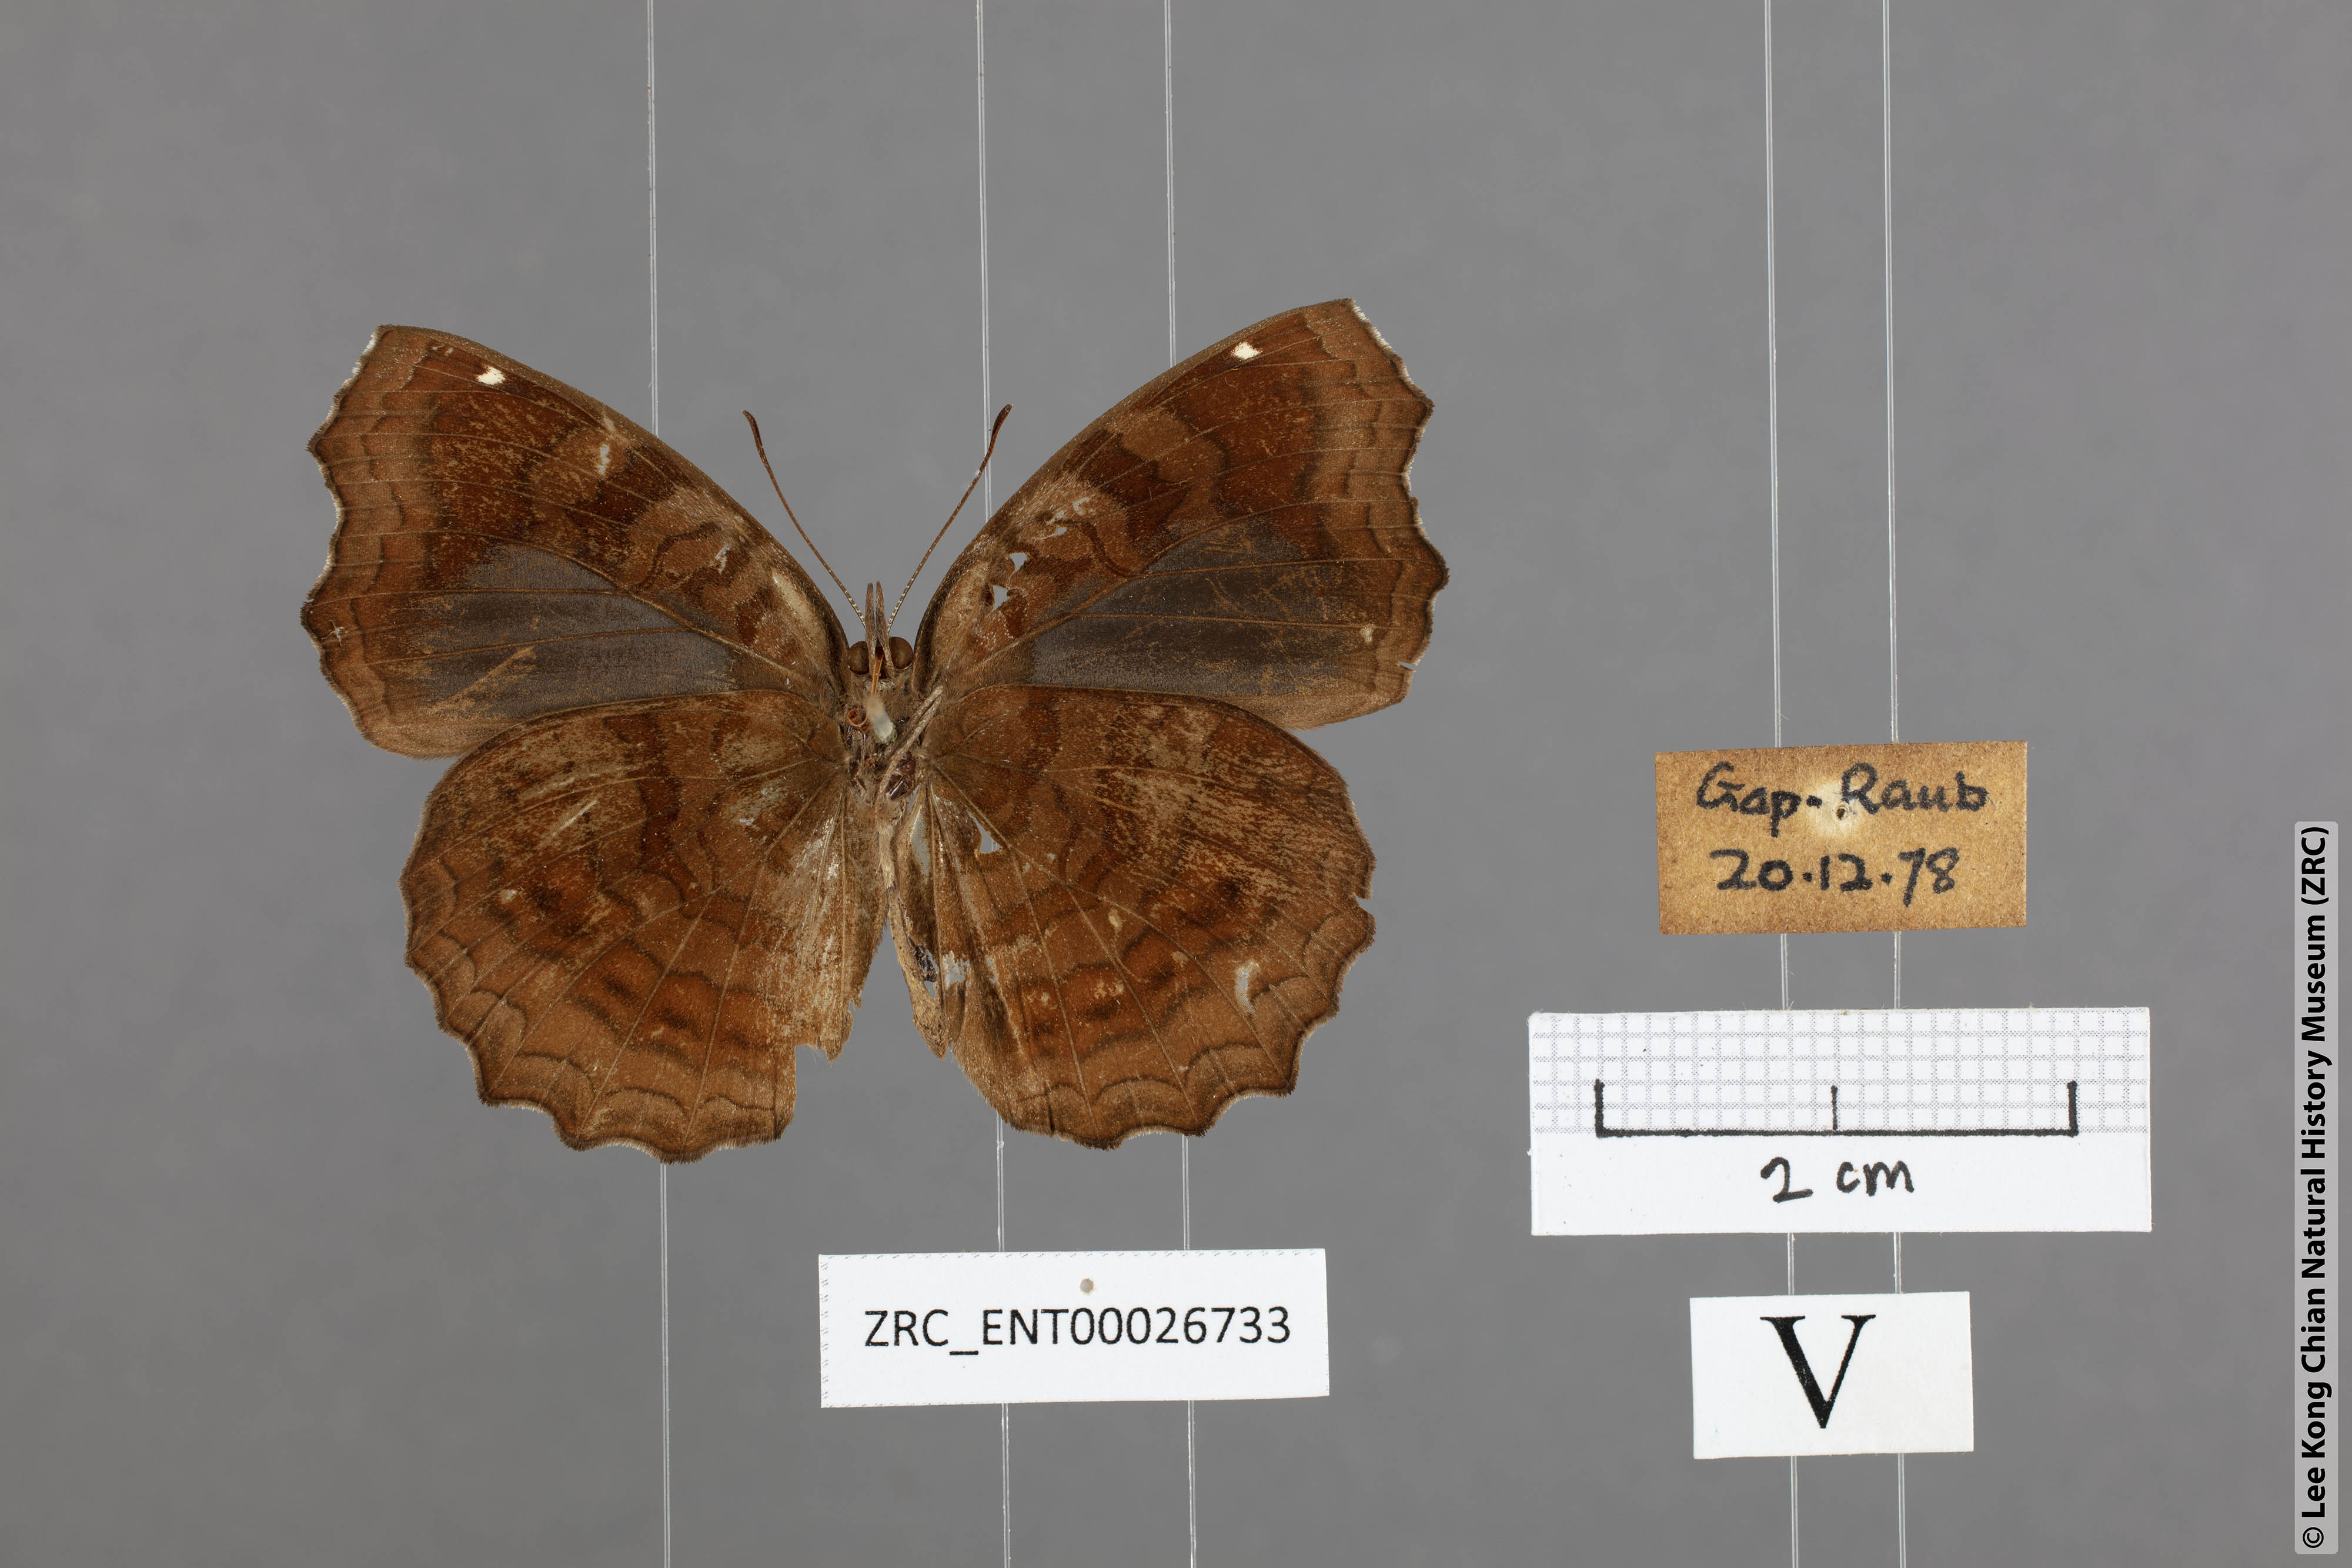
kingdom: Animalia
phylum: Arthropoda
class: Insecta
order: Lepidoptera
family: Nymphalidae
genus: Ariadne
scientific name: Ariadne ariadne
